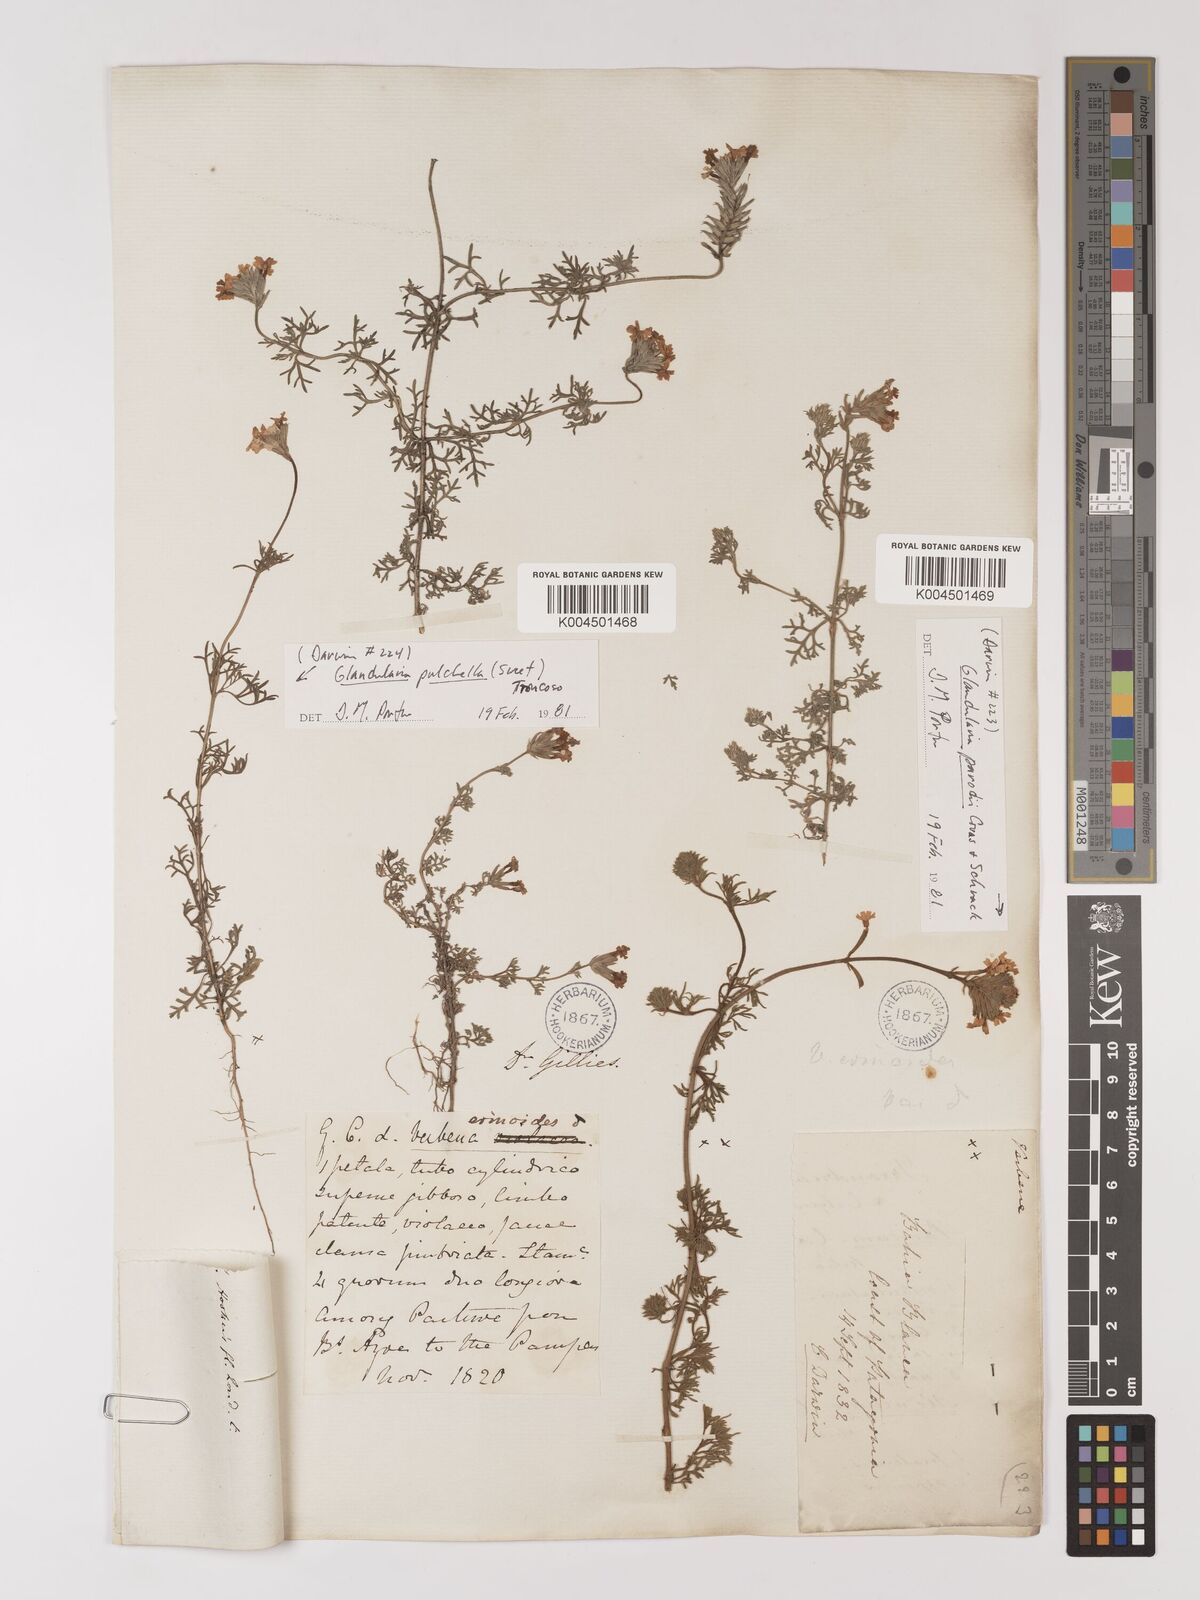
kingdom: Plantae
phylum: Tracheophyta
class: Magnoliopsida
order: Lamiales
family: Verbenaceae
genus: Verbena
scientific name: Verbena tenera
